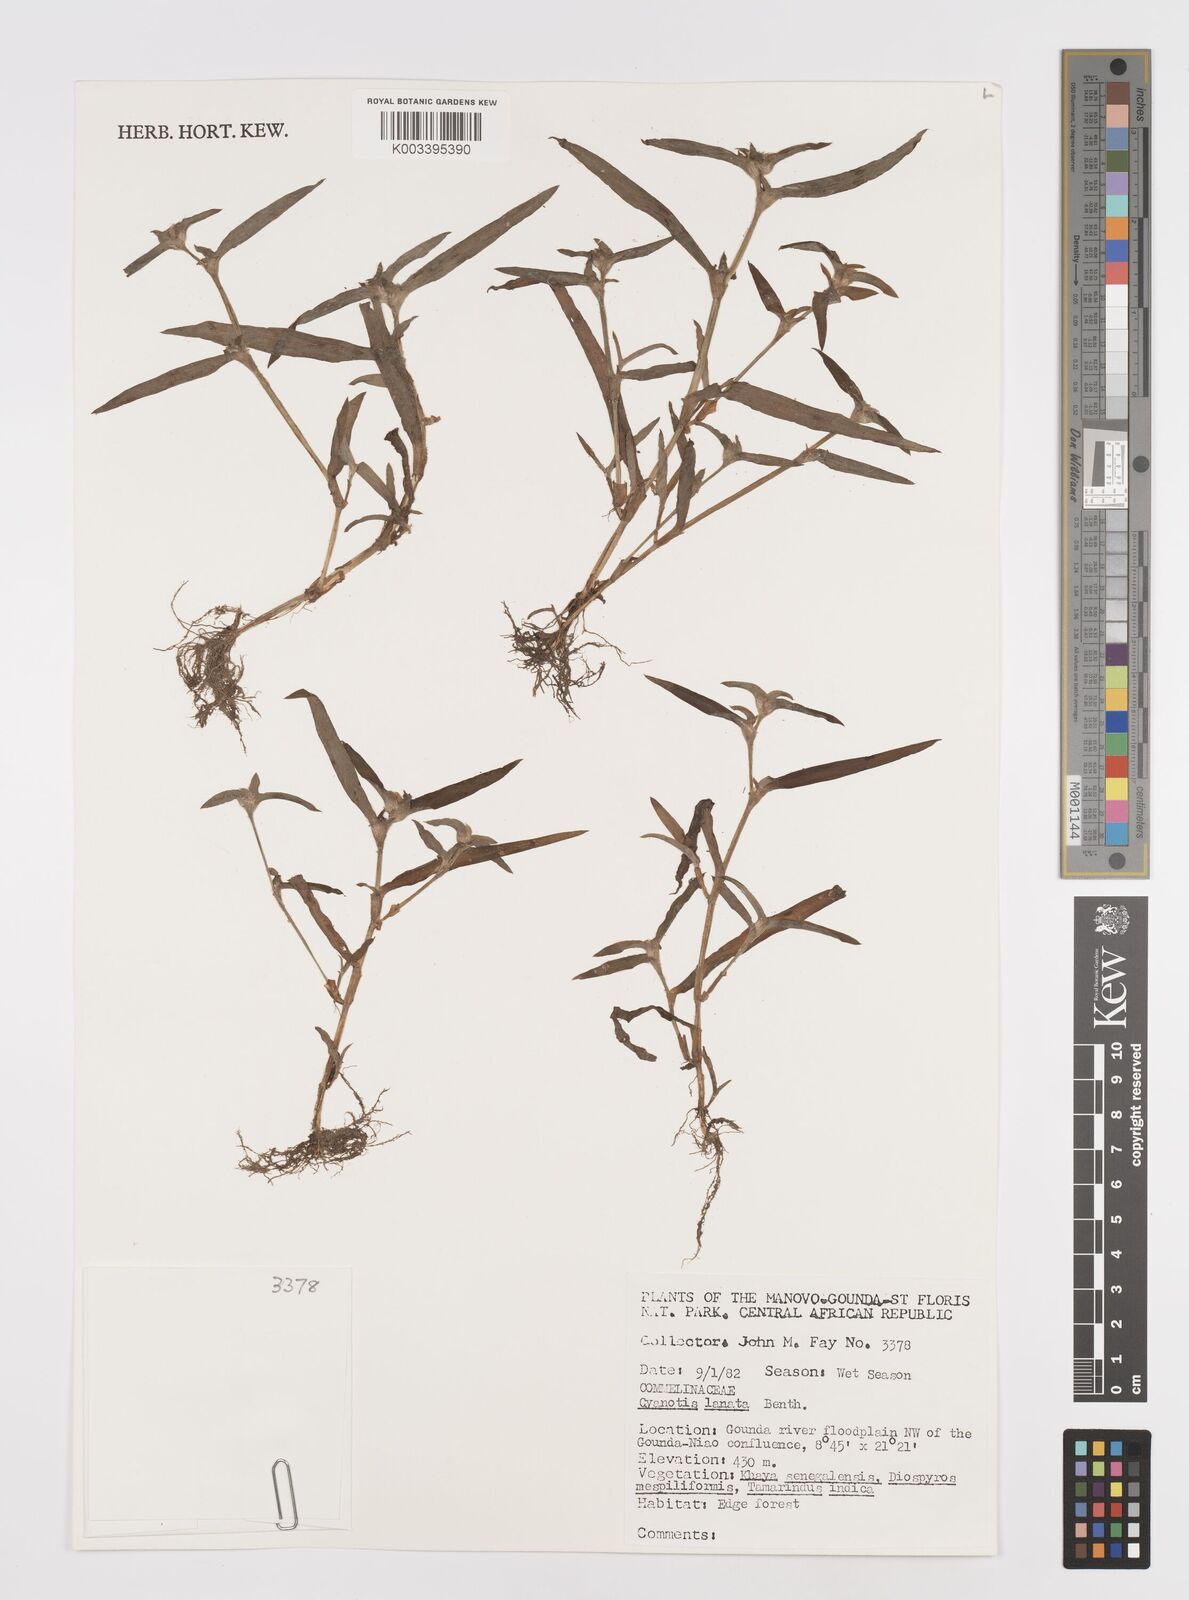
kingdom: Plantae
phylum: Tracheophyta
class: Liliopsida
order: Commelinales
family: Commelinaceae
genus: Cyanotis
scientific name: Cyanotis lanata
